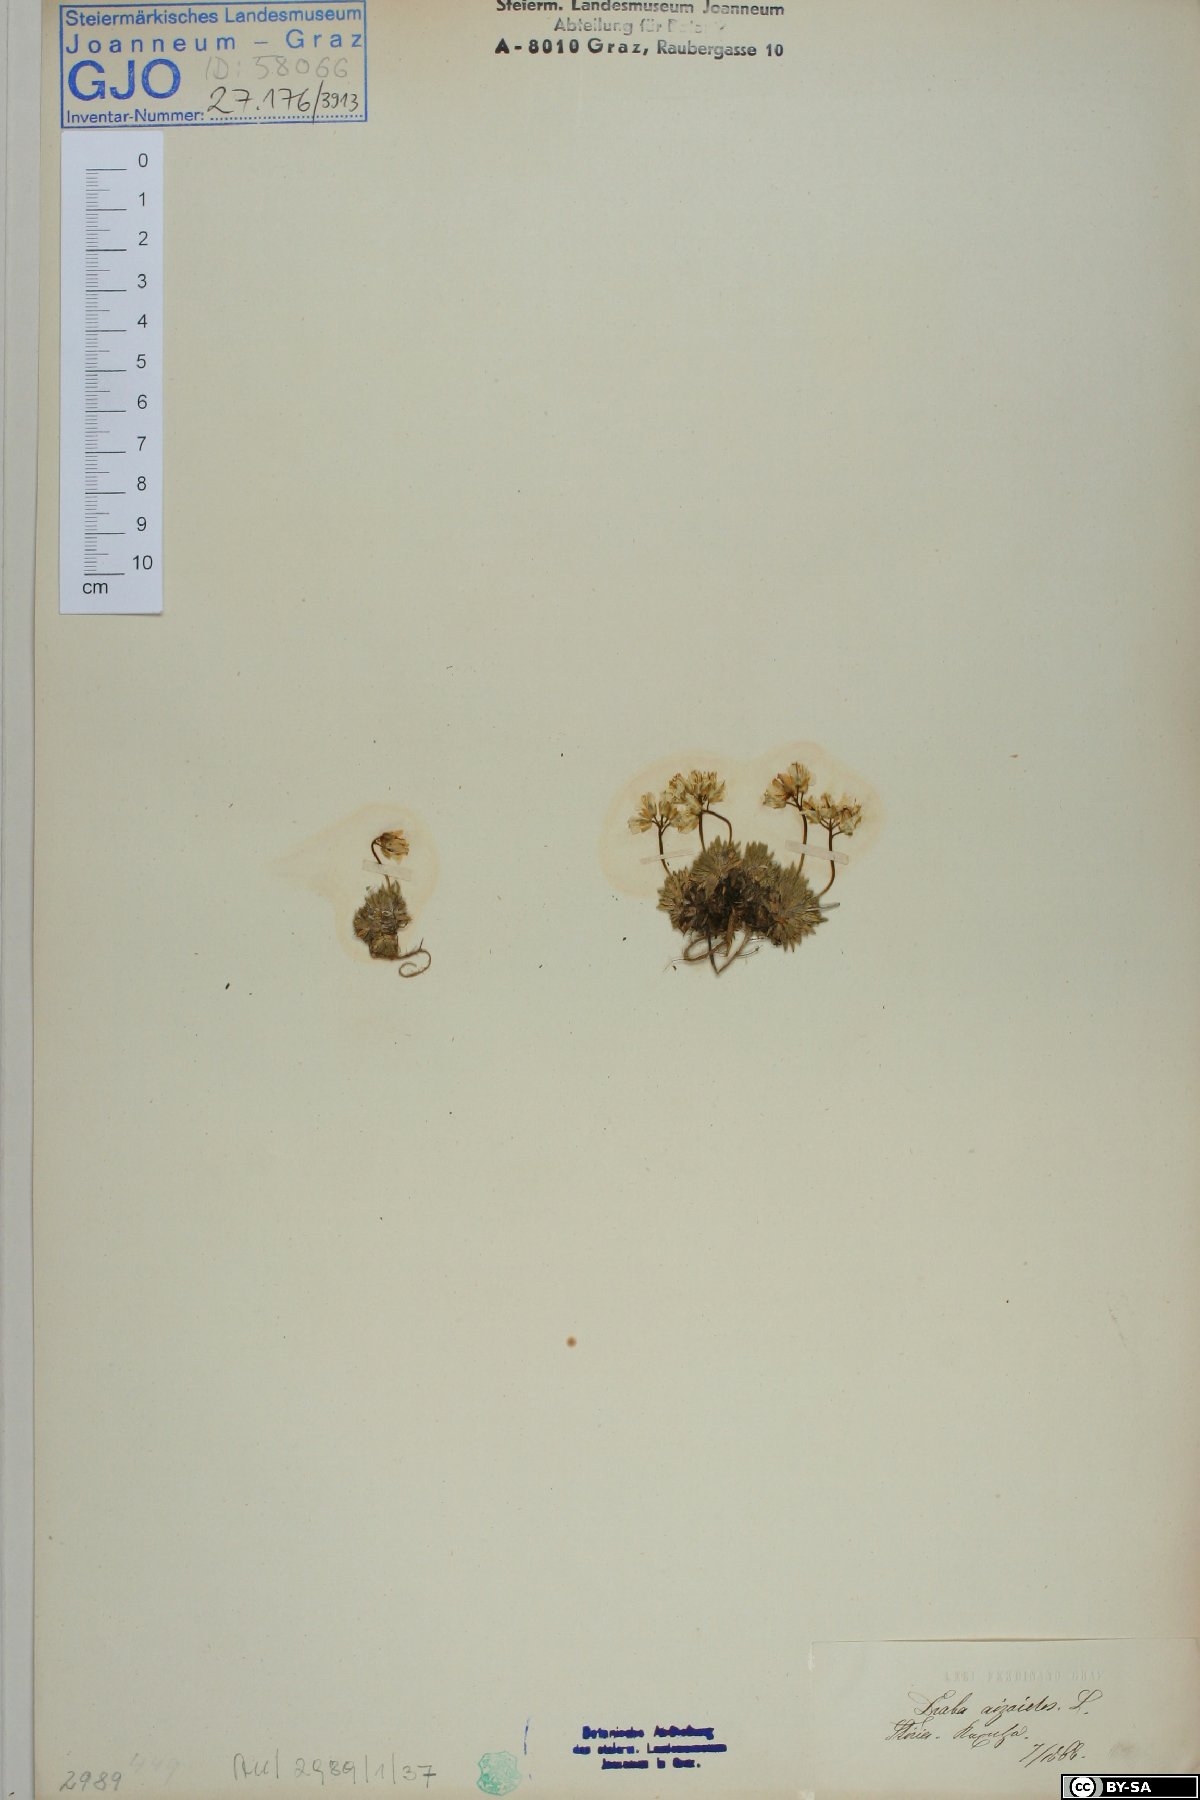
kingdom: Plantae
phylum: Tracheophyta
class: Magnoliopsida
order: Brassicales
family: Brassicaceae
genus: Draba
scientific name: Draba aizoides
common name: Yellow whitlowgrass
